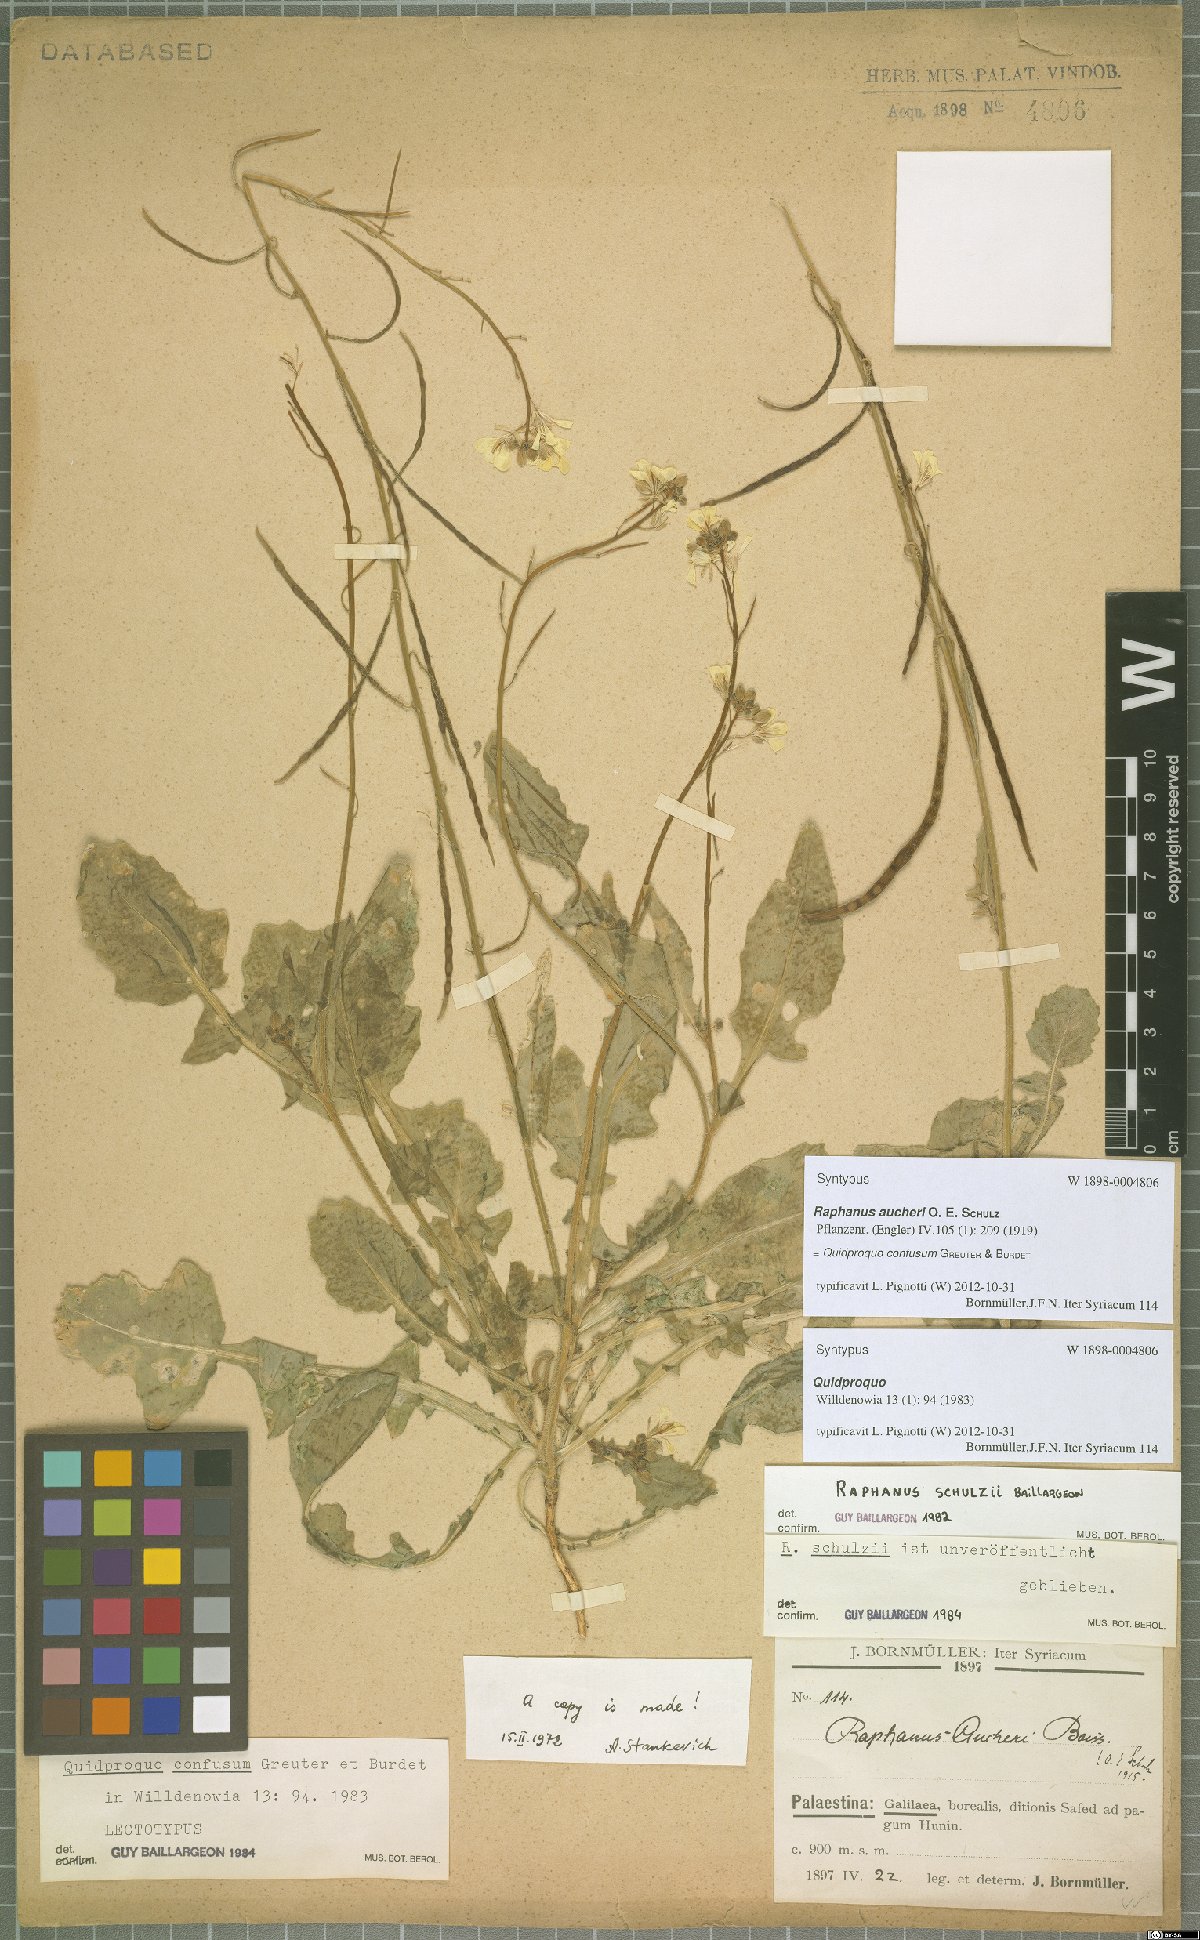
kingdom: Plantae
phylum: Tracheophyta
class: Magnoliopsida
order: Brassicales
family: Brassicaceae
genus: Raphanus
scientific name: Raphanus confusus
